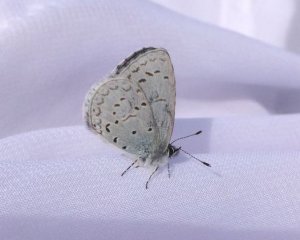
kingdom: Animalia
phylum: Arthropoda
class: Insecta
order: Lepidoptera
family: Lycaenidae
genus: Celastrina
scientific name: Celastrina ladon
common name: Echo Azure
